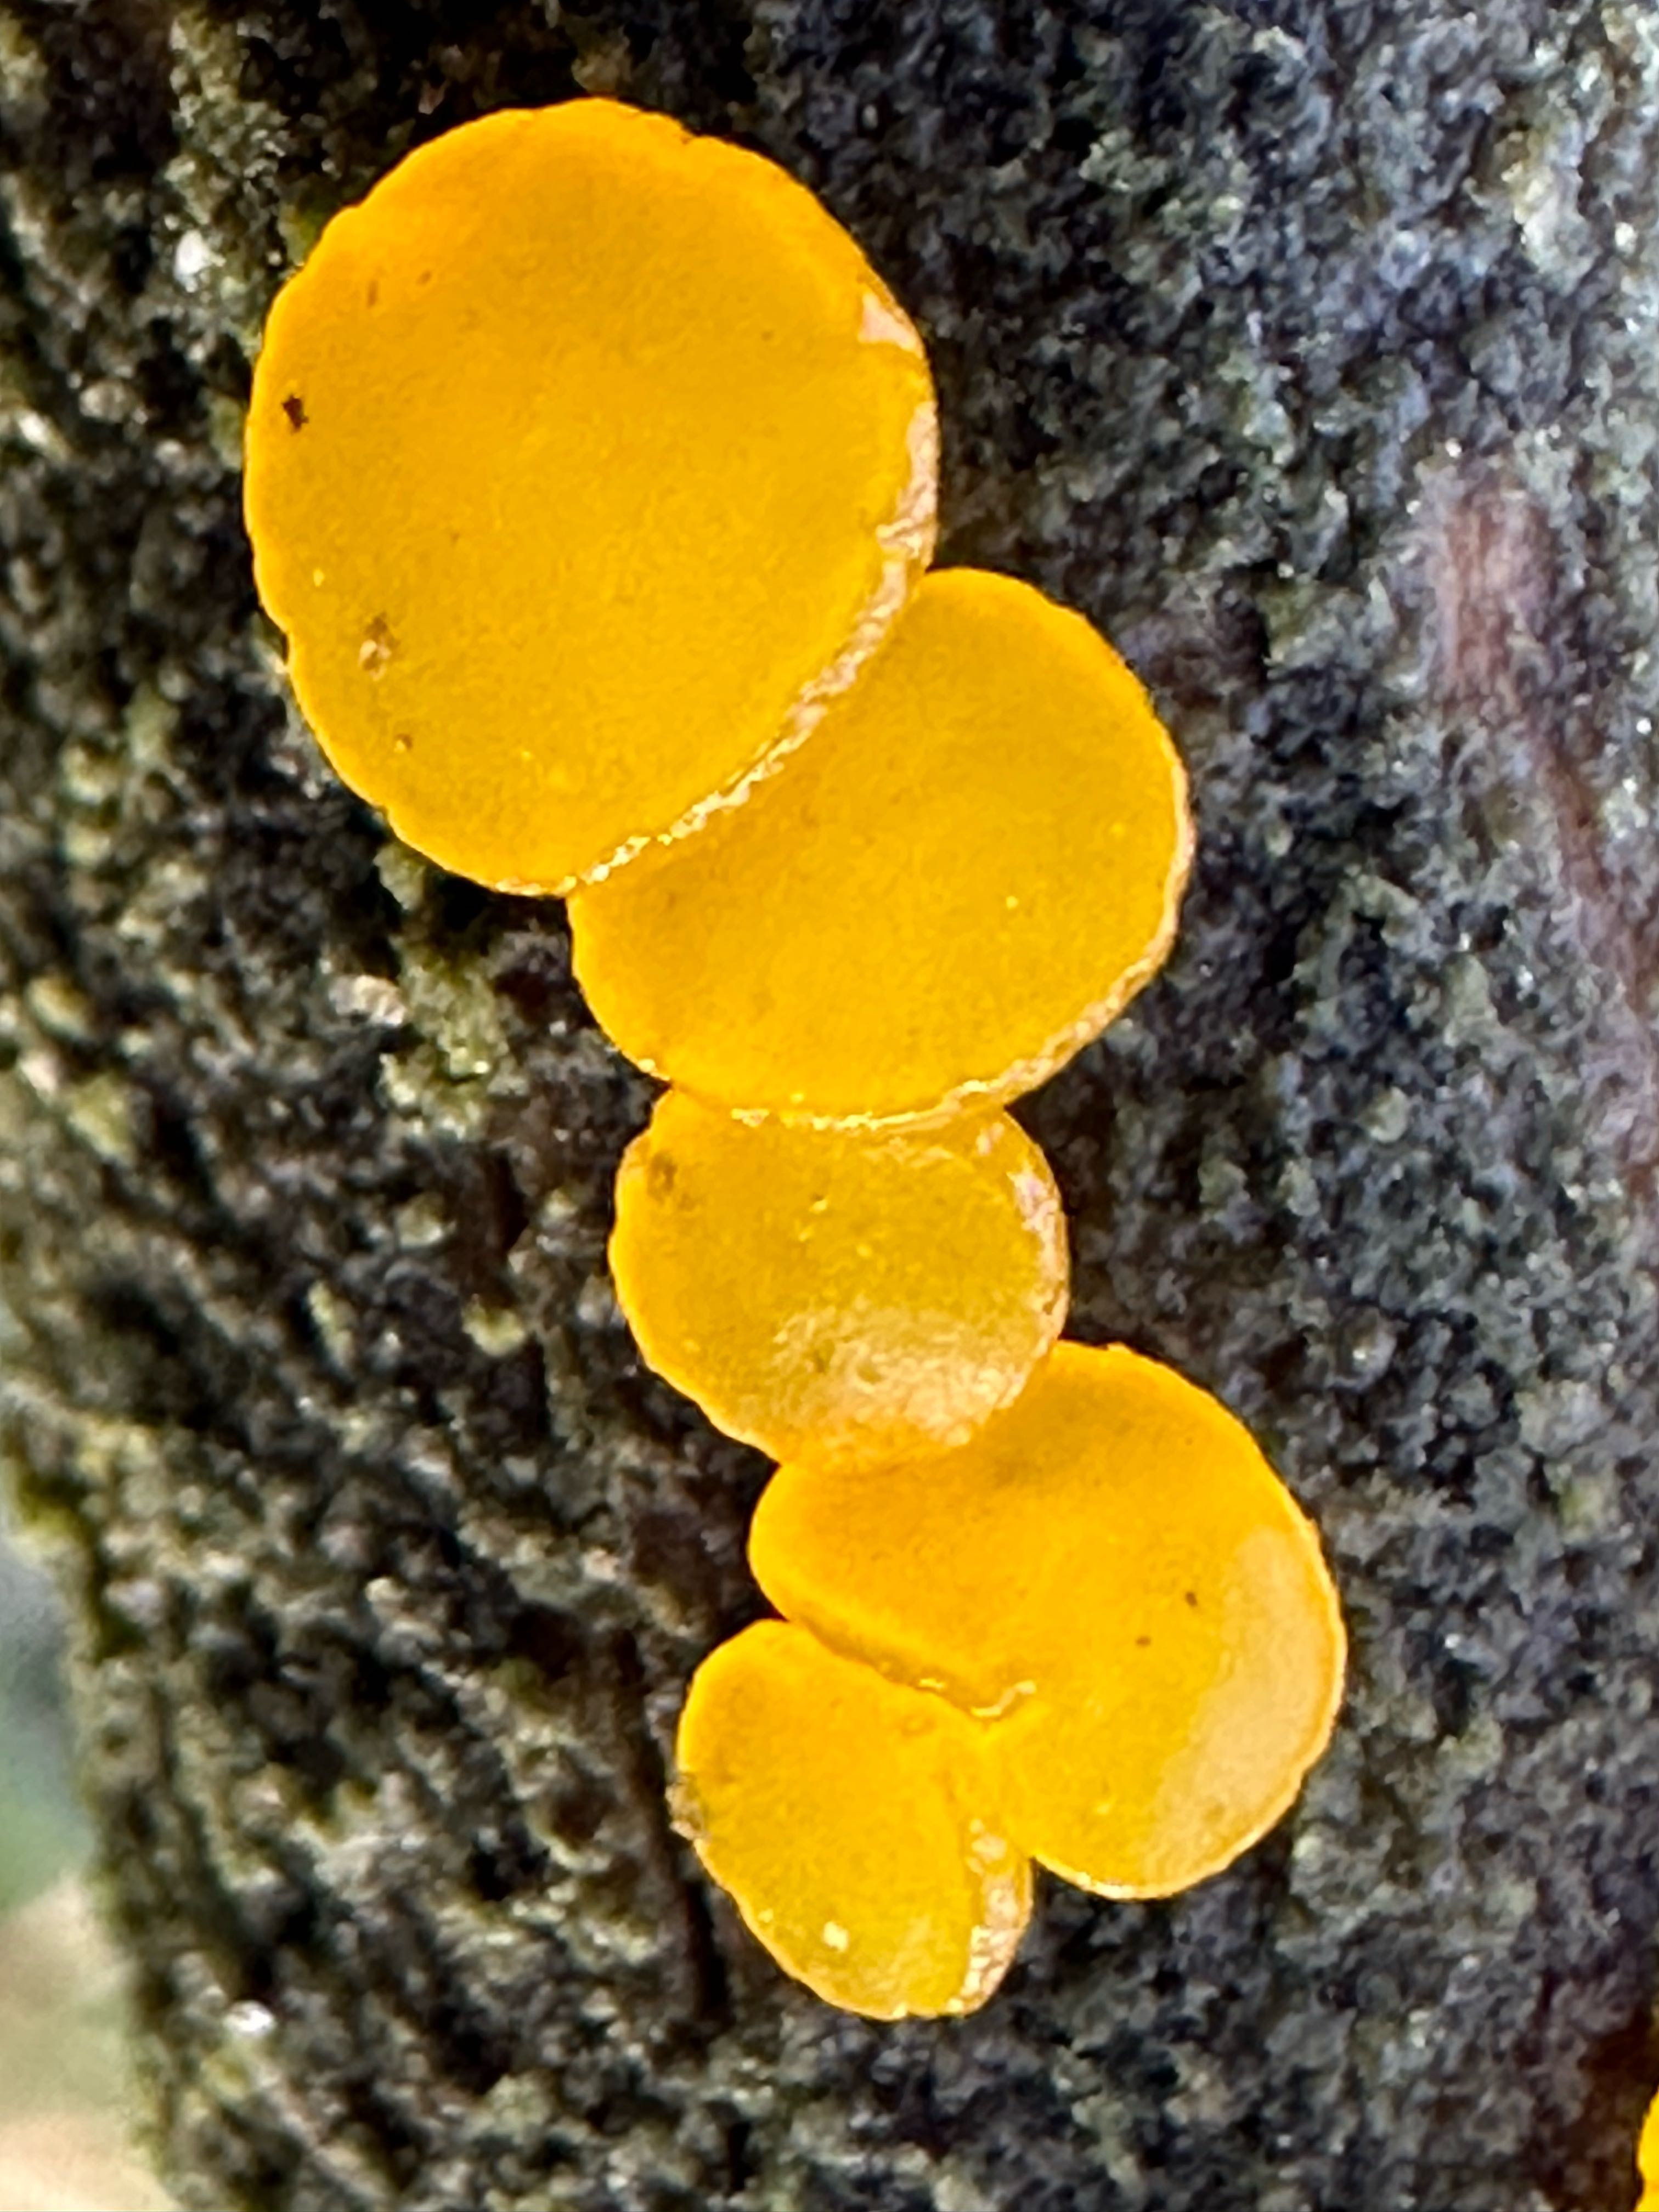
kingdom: Fungi
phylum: Basidiomycota
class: Dacrymycetes
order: Dacrymycetales
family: Dacrymycetaceae
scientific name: Dacrymycetaceae
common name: tåresvampfamilien
